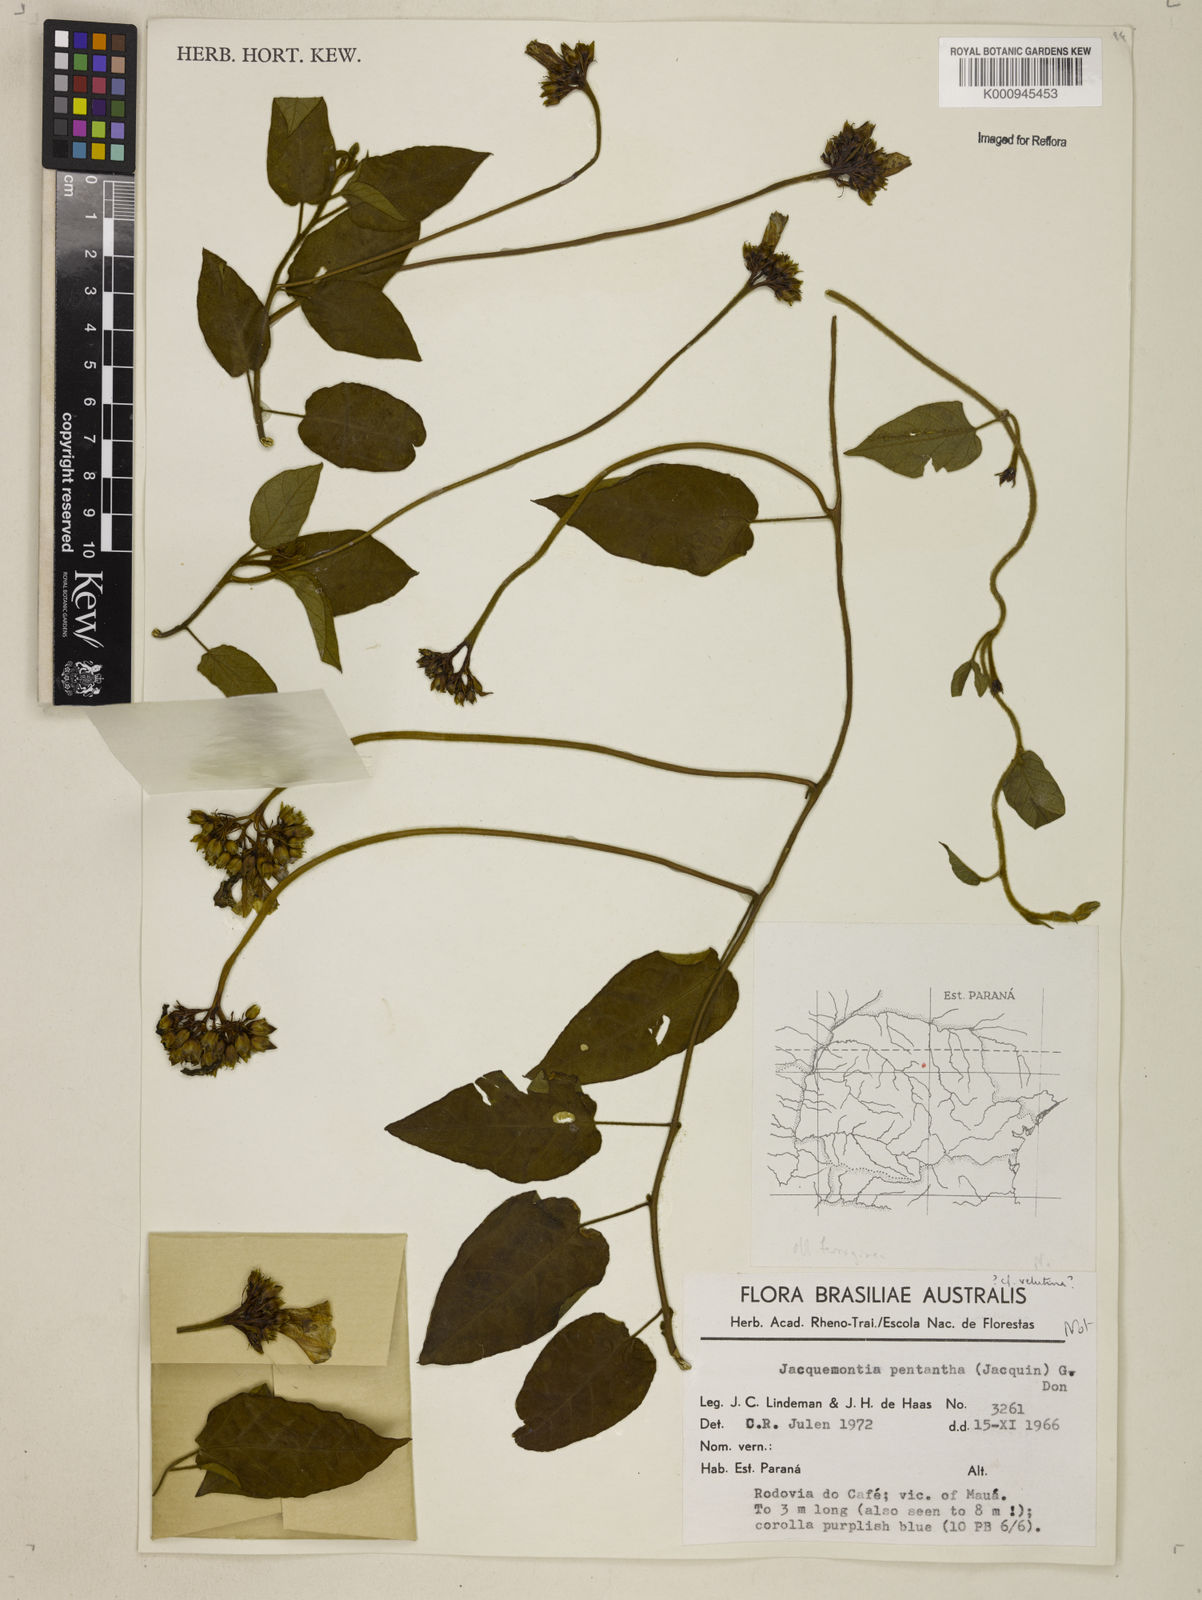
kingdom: Plantae
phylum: Tracheophyta
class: Magnoliopsida
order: Solanales
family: Convolvulaceae
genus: Jacquemontia
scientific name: Jacquemontia
